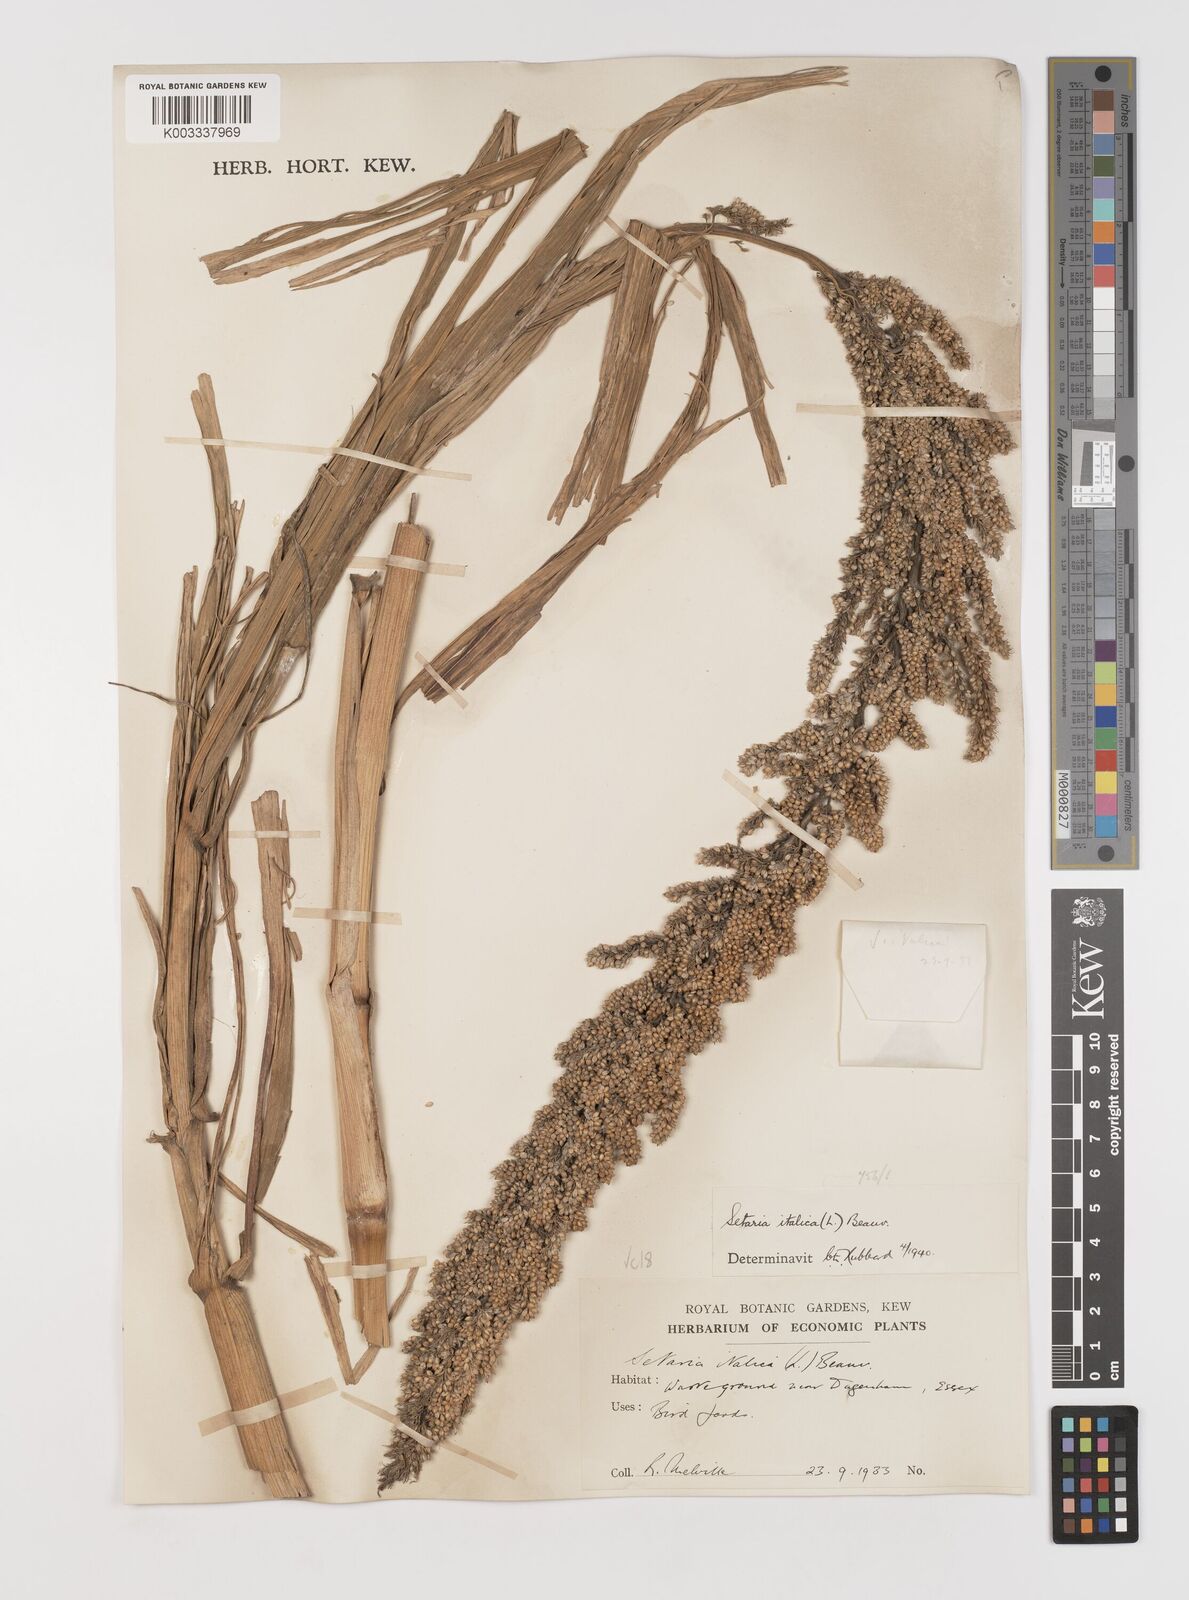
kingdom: Plantae
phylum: Tracheophyta
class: Liliopsida
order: Poales
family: Poaceae
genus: Setaria
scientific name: Setaria italica
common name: Foxtail bristle-grass
